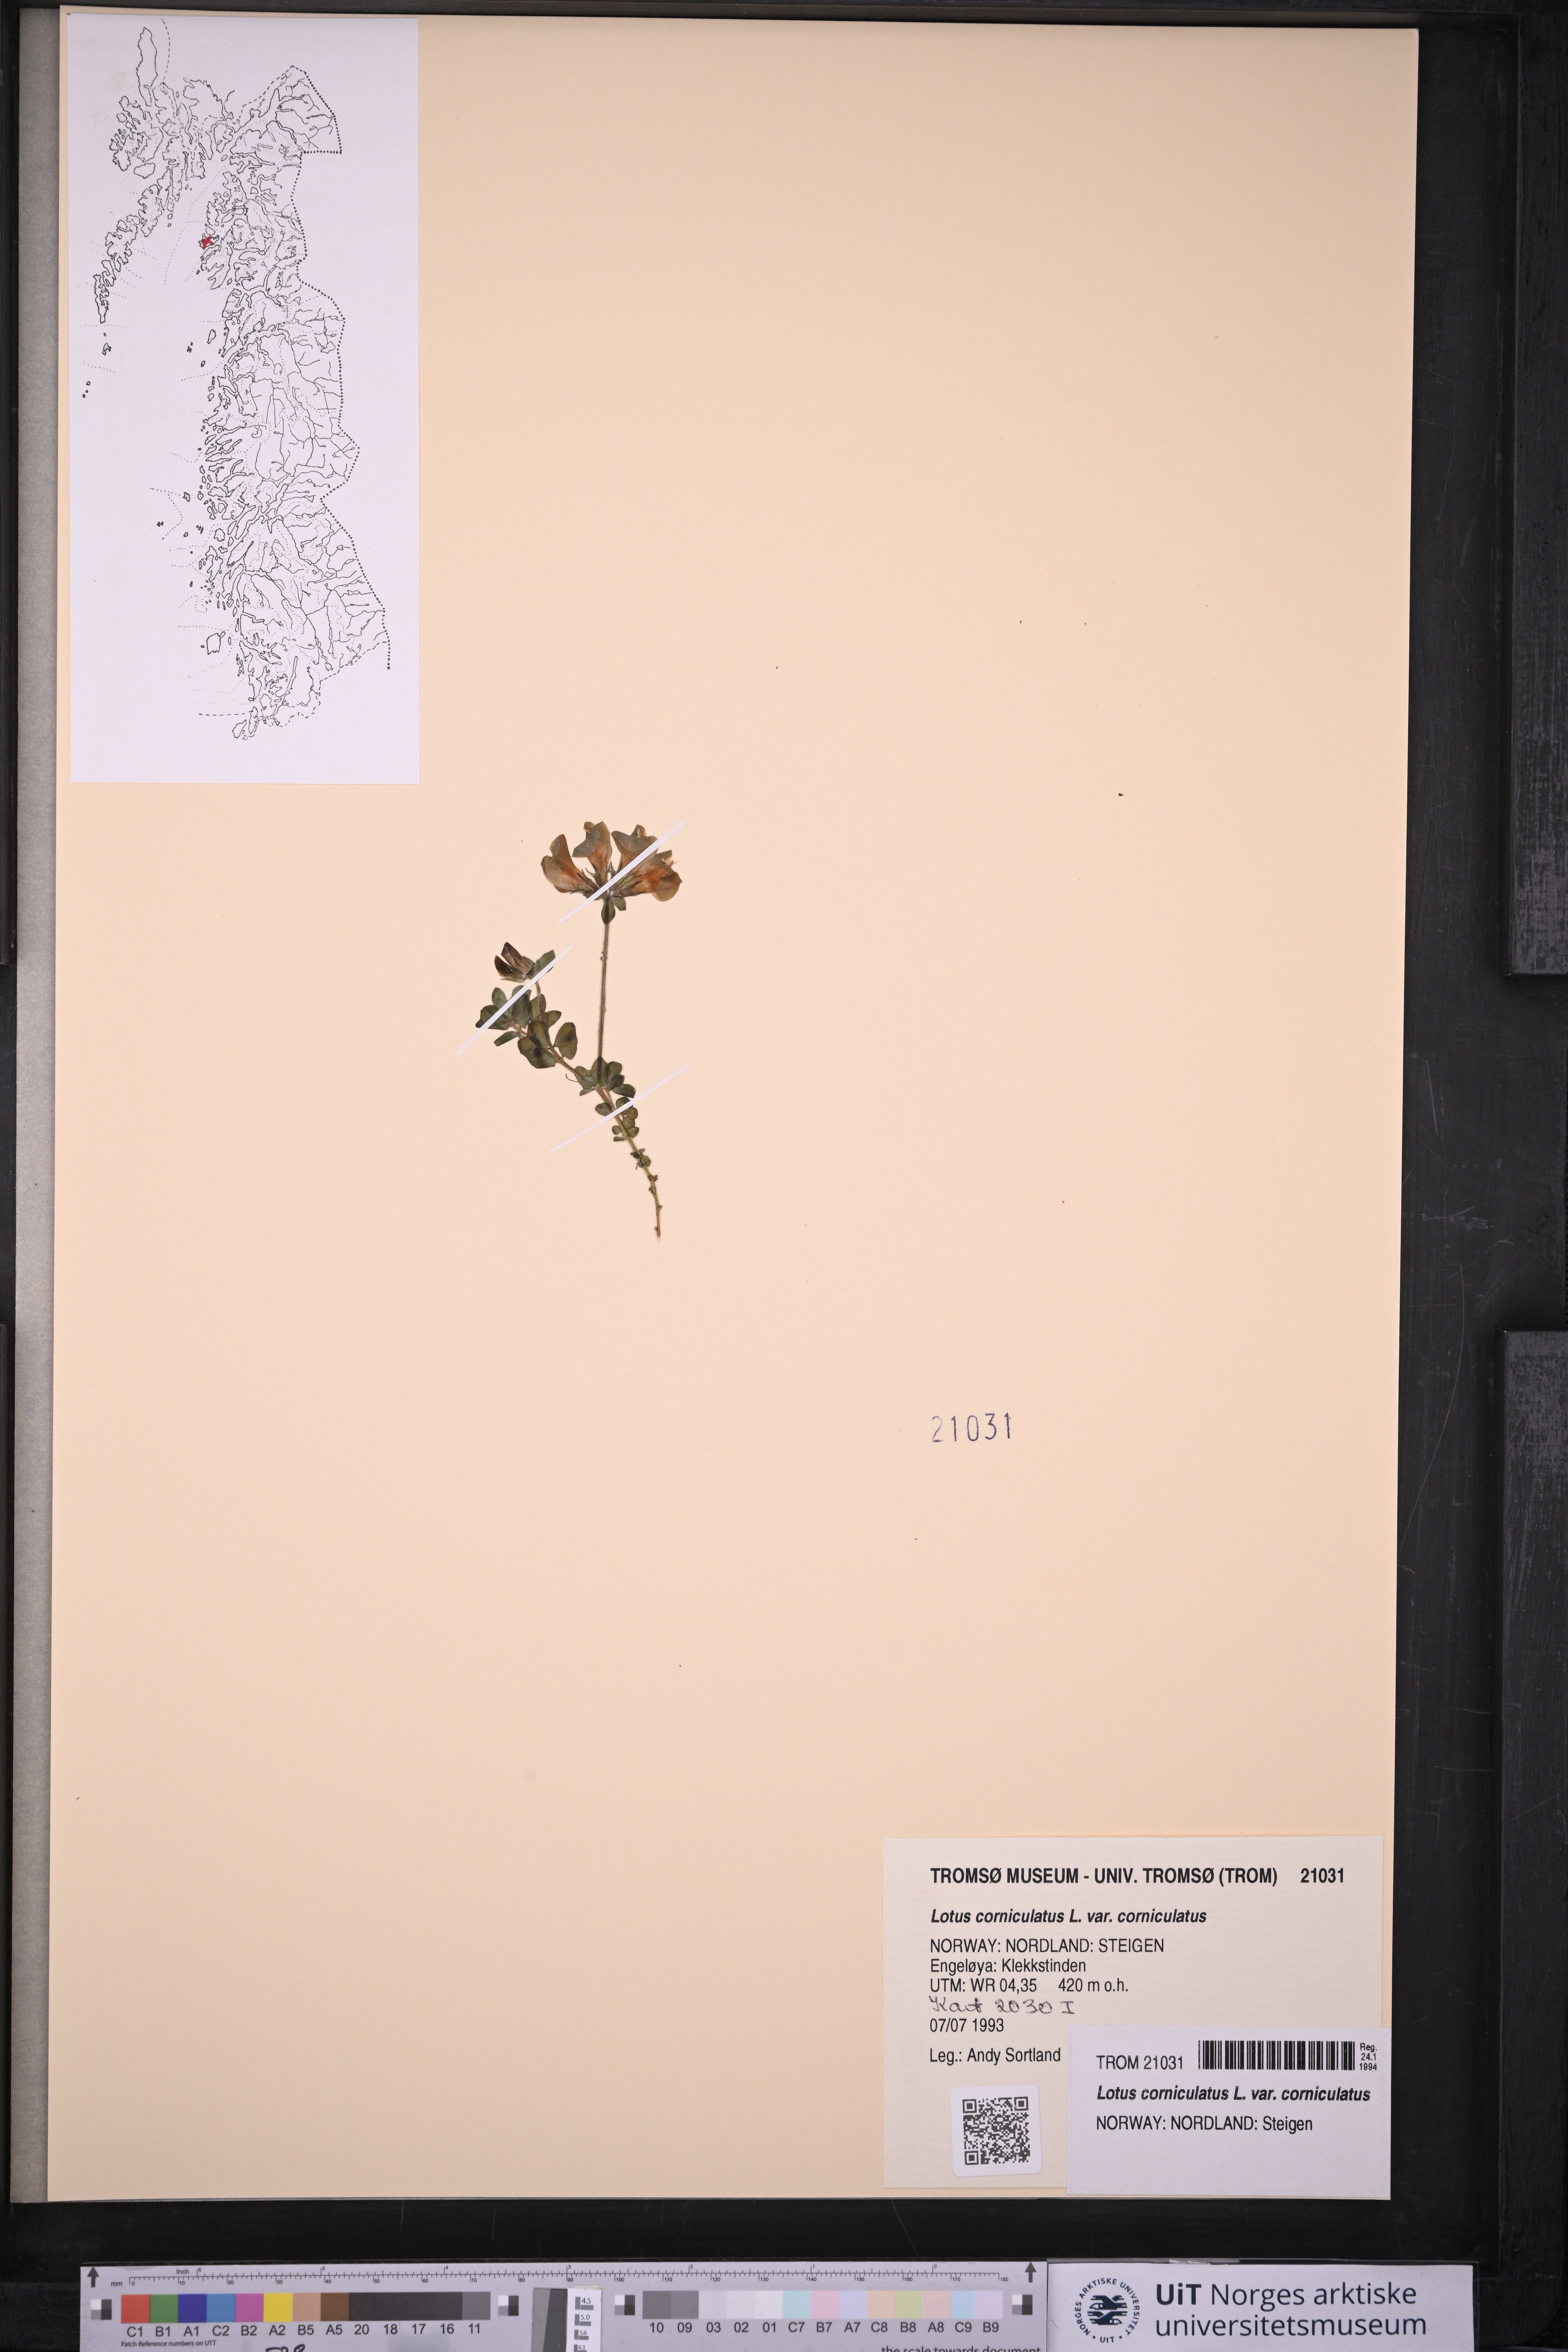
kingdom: Plantae
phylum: Tracheophyta
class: Magnoliopsida
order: Fabales
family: Fabaceae
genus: Lotus
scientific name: Lotus corniculatus
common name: Common bird's-foot-trefoil
